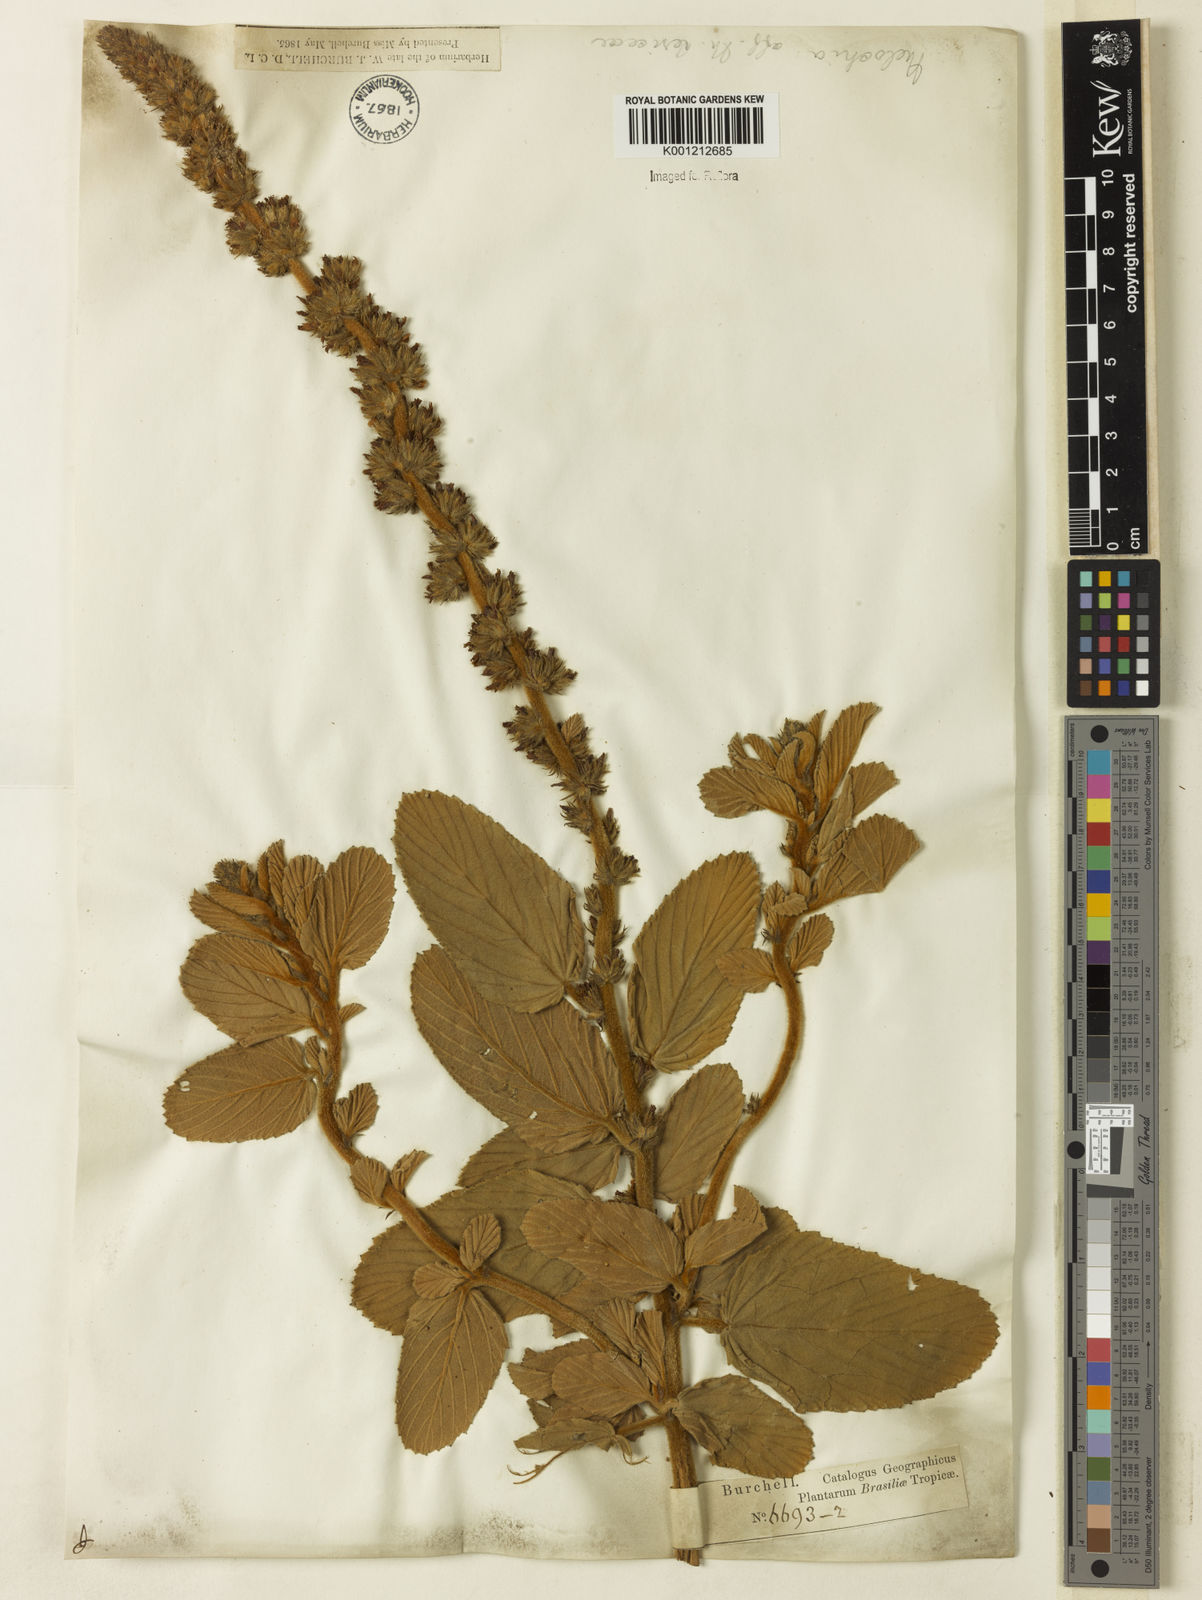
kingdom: Plantae
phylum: Tracheophyta
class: Magnoliopsida
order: Malvales
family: Malvaceae
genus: Melochia
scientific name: Melochia spicata
